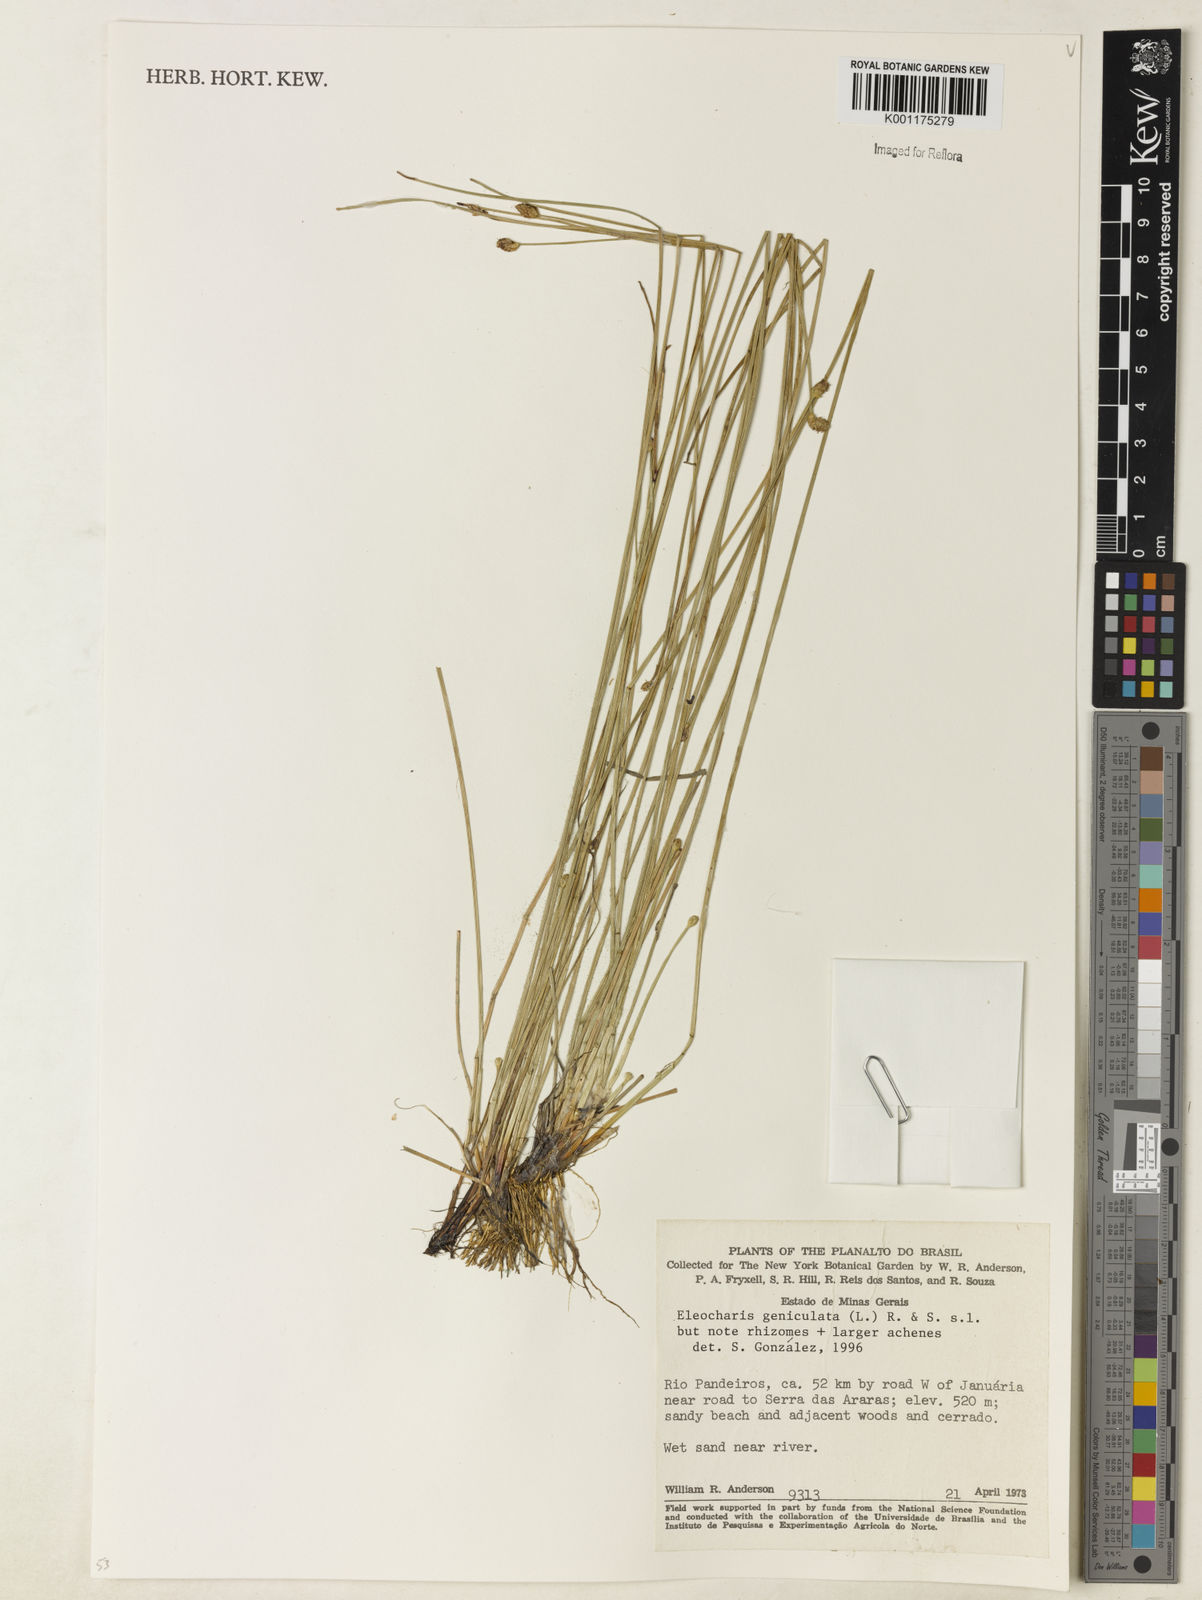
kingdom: Plantae
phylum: Tracheophyta
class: Liliopsida
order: Poales
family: Cyperaceae
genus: Eleocharis
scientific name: Eleocharis geniculata
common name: Canada spikesedge
